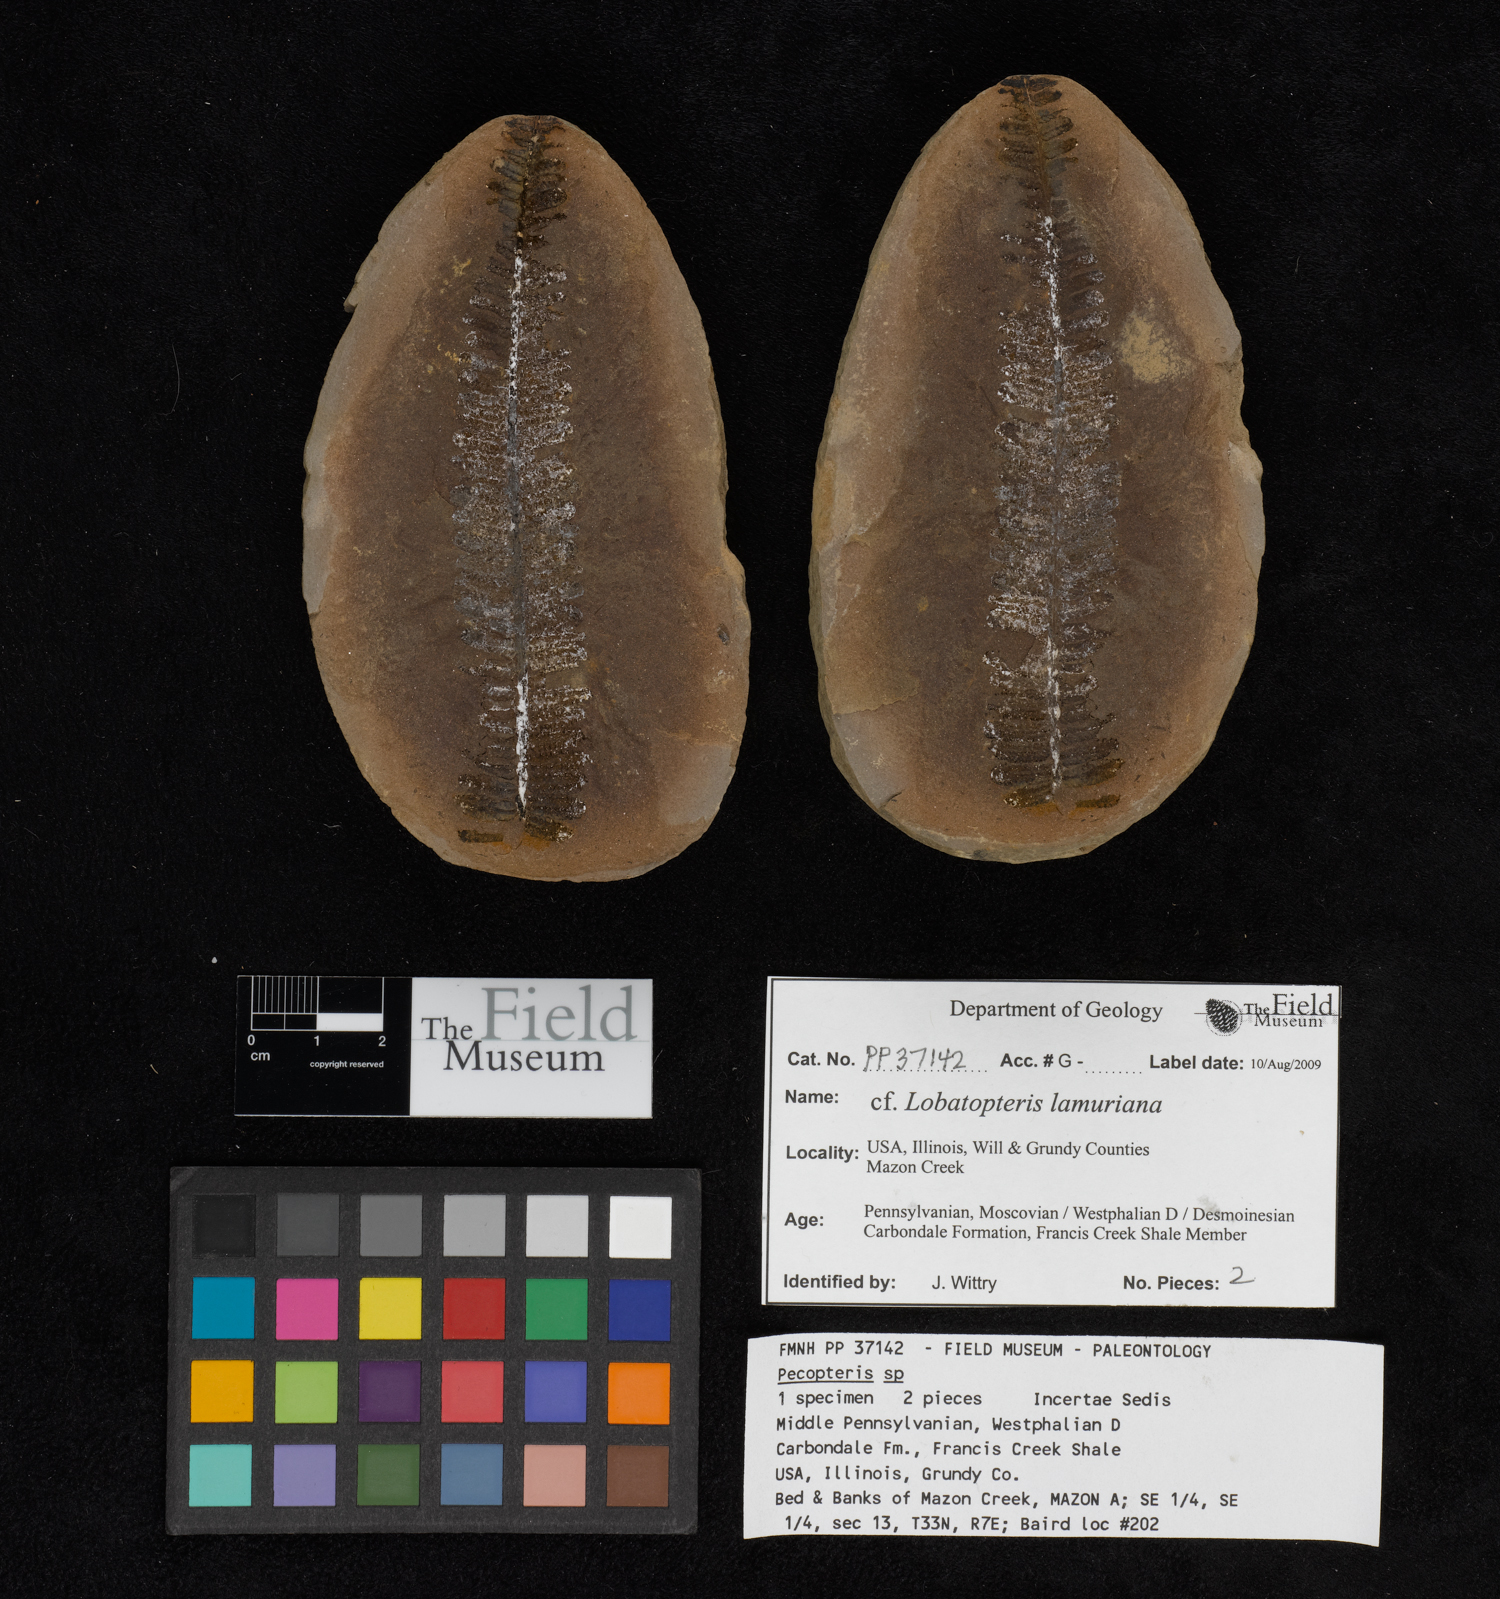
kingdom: Plantae
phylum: Tracheophyta
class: Polypodiopsida
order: Marattiales
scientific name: Marattiales
